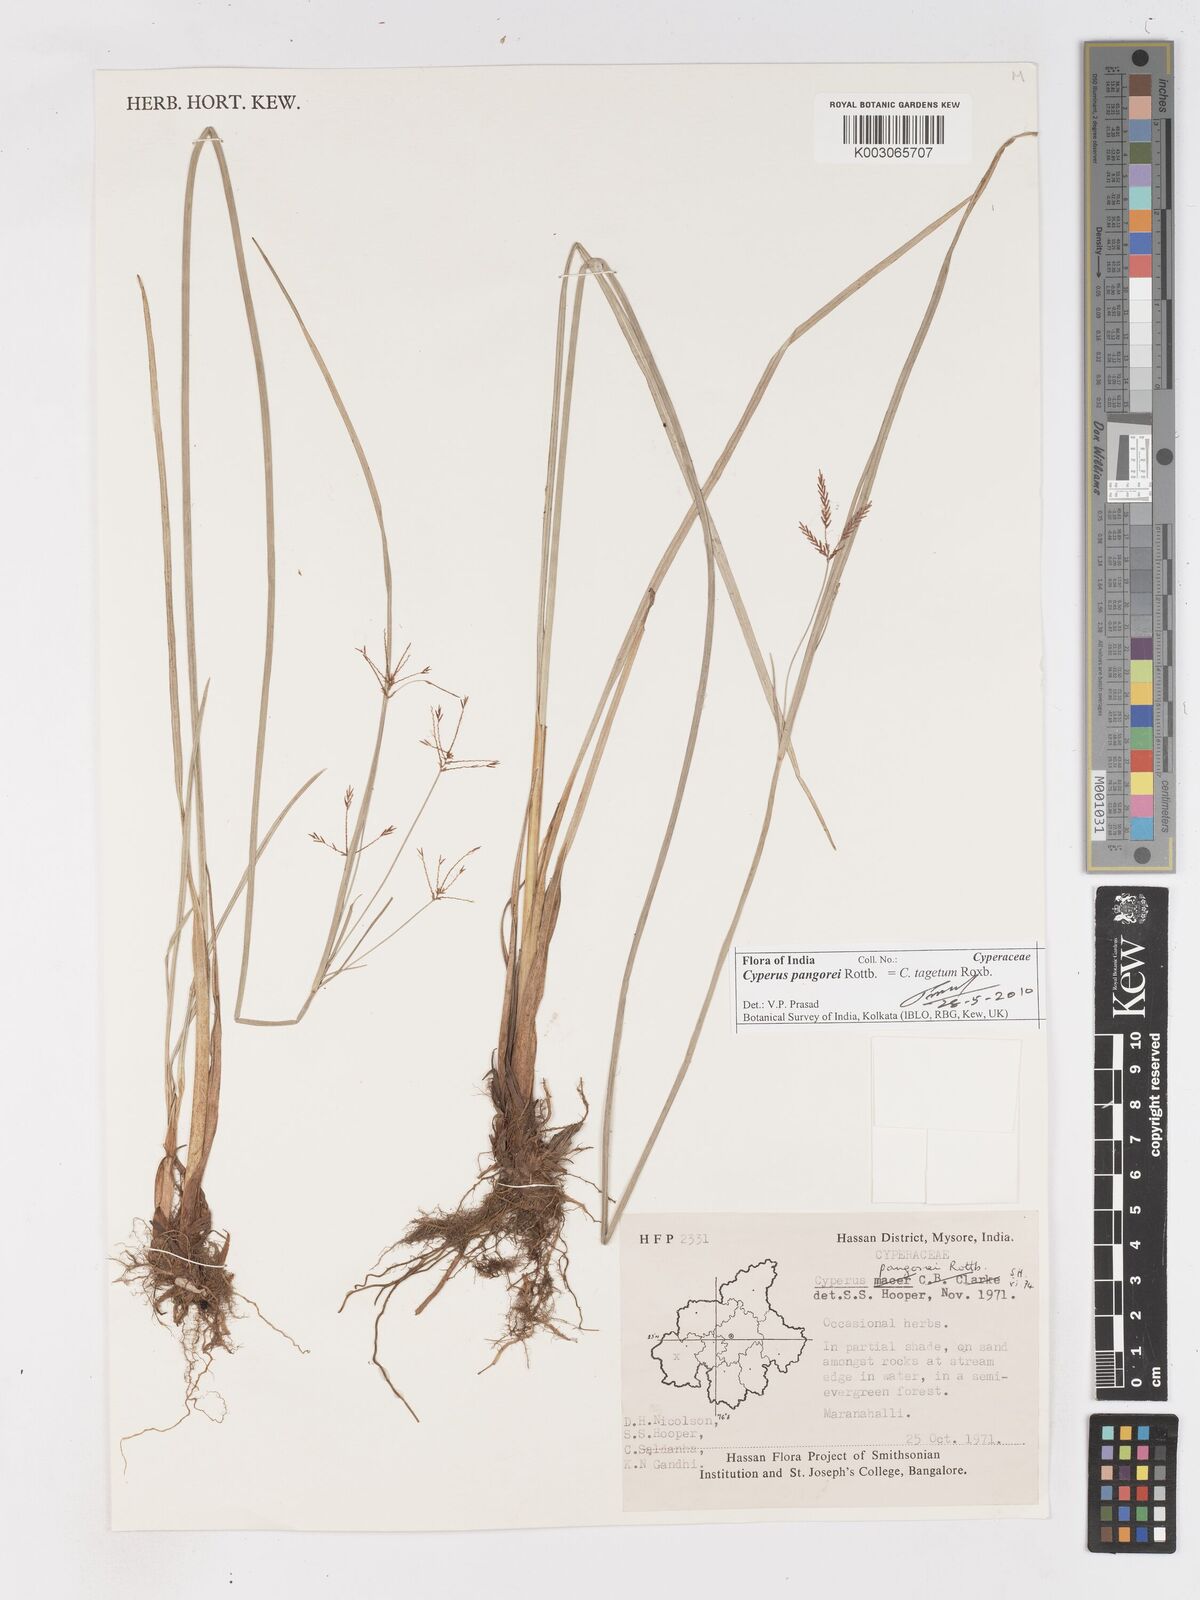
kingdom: Plantae
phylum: Tracheophyta
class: Liliopsida
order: Poales
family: Cyperaceae
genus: Cyperus
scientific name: Cyperus pangorei
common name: Mat sedge
